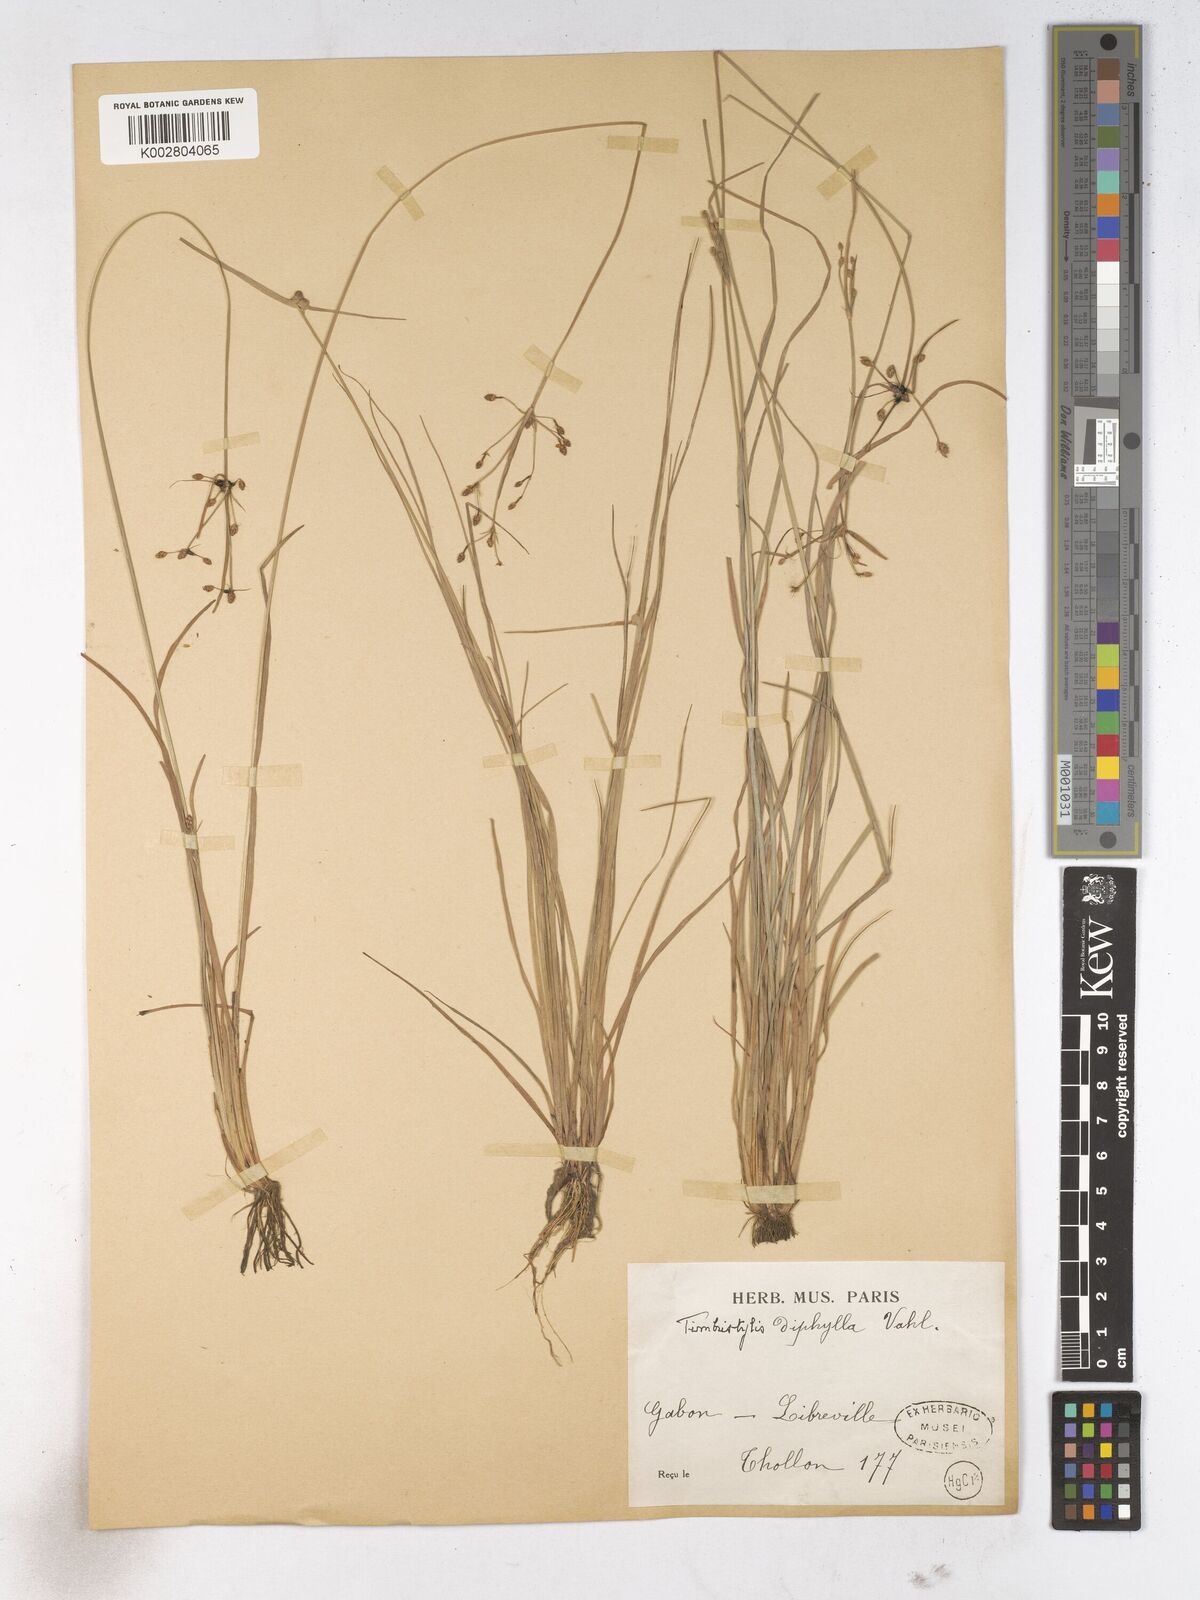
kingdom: Plantae
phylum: Tracheophyta
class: Liliopsida
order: Poales
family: Cyperaceae
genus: Fimbristylis
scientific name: Fimbristylis dichotoma
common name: Forked fimbry
